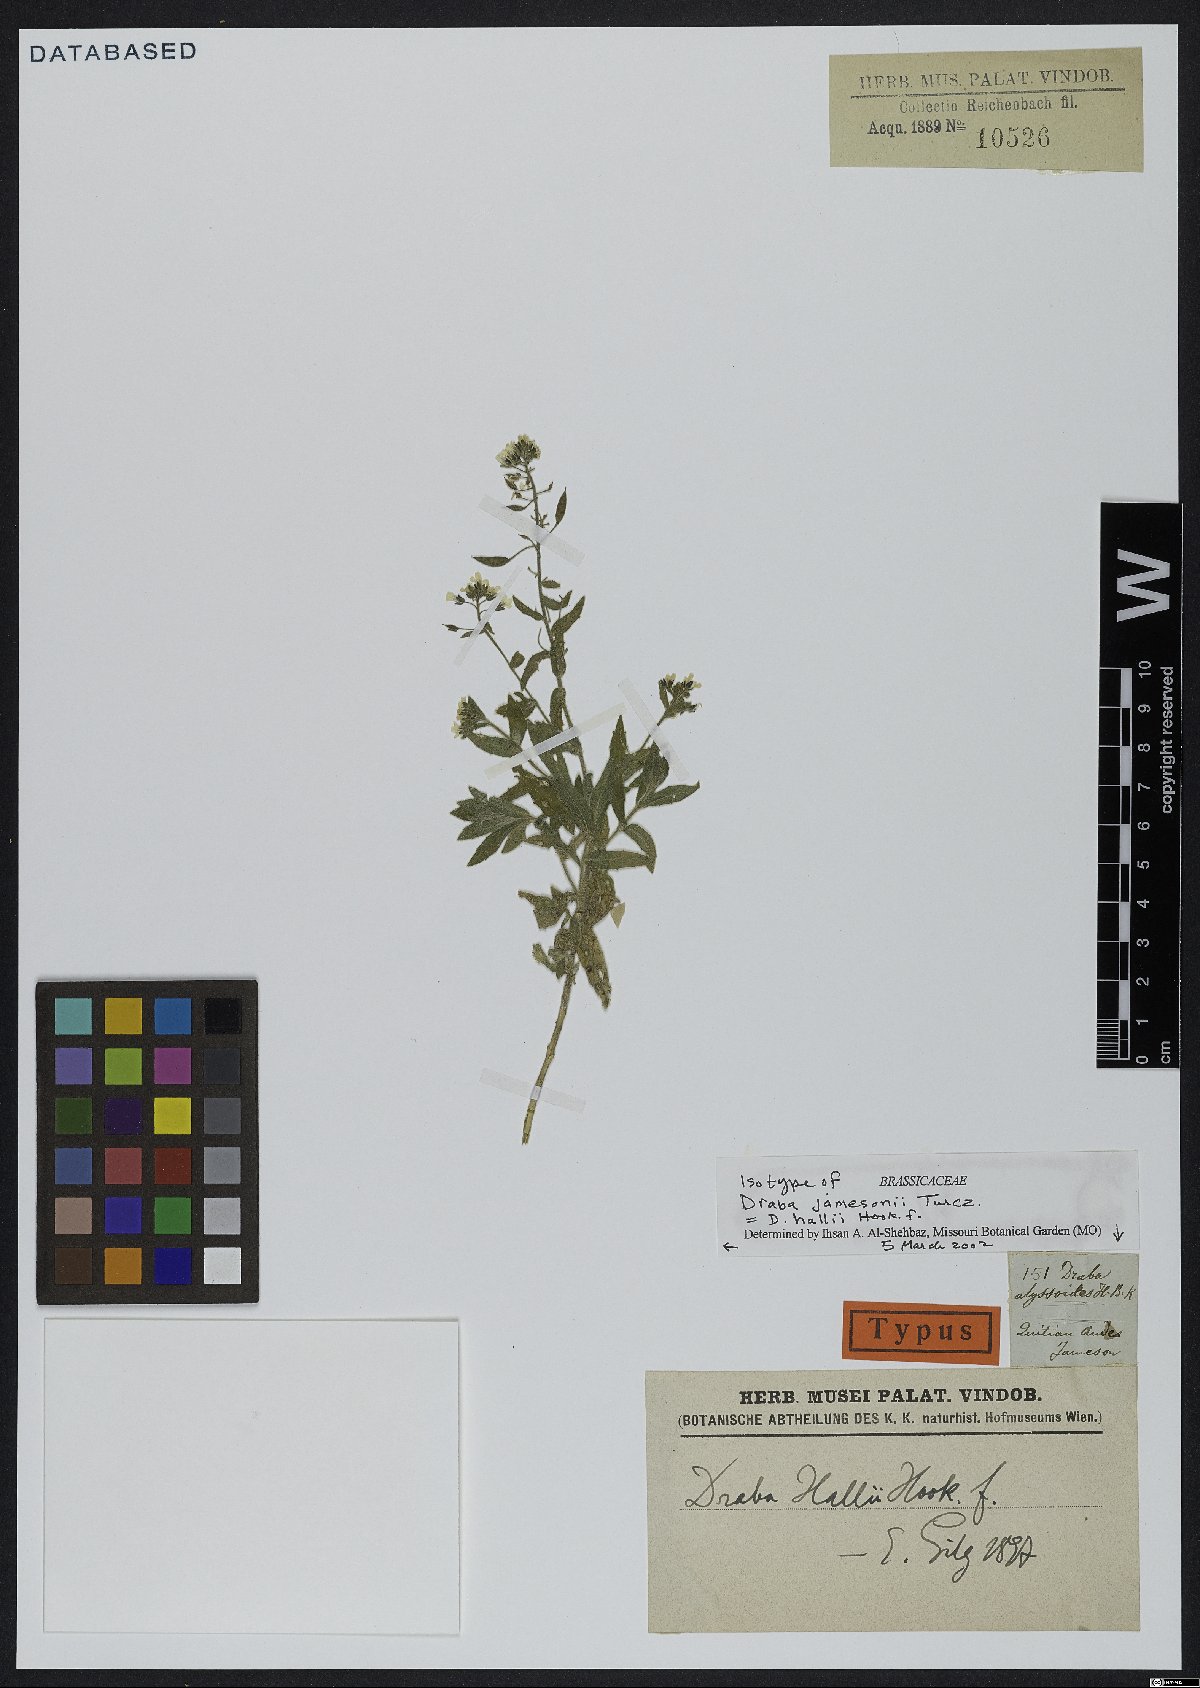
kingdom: Plantae
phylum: Tracheophyta
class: Magnoliopsida
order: Brassicales
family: Brassicaceae
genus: Draba
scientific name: Draba hallii
